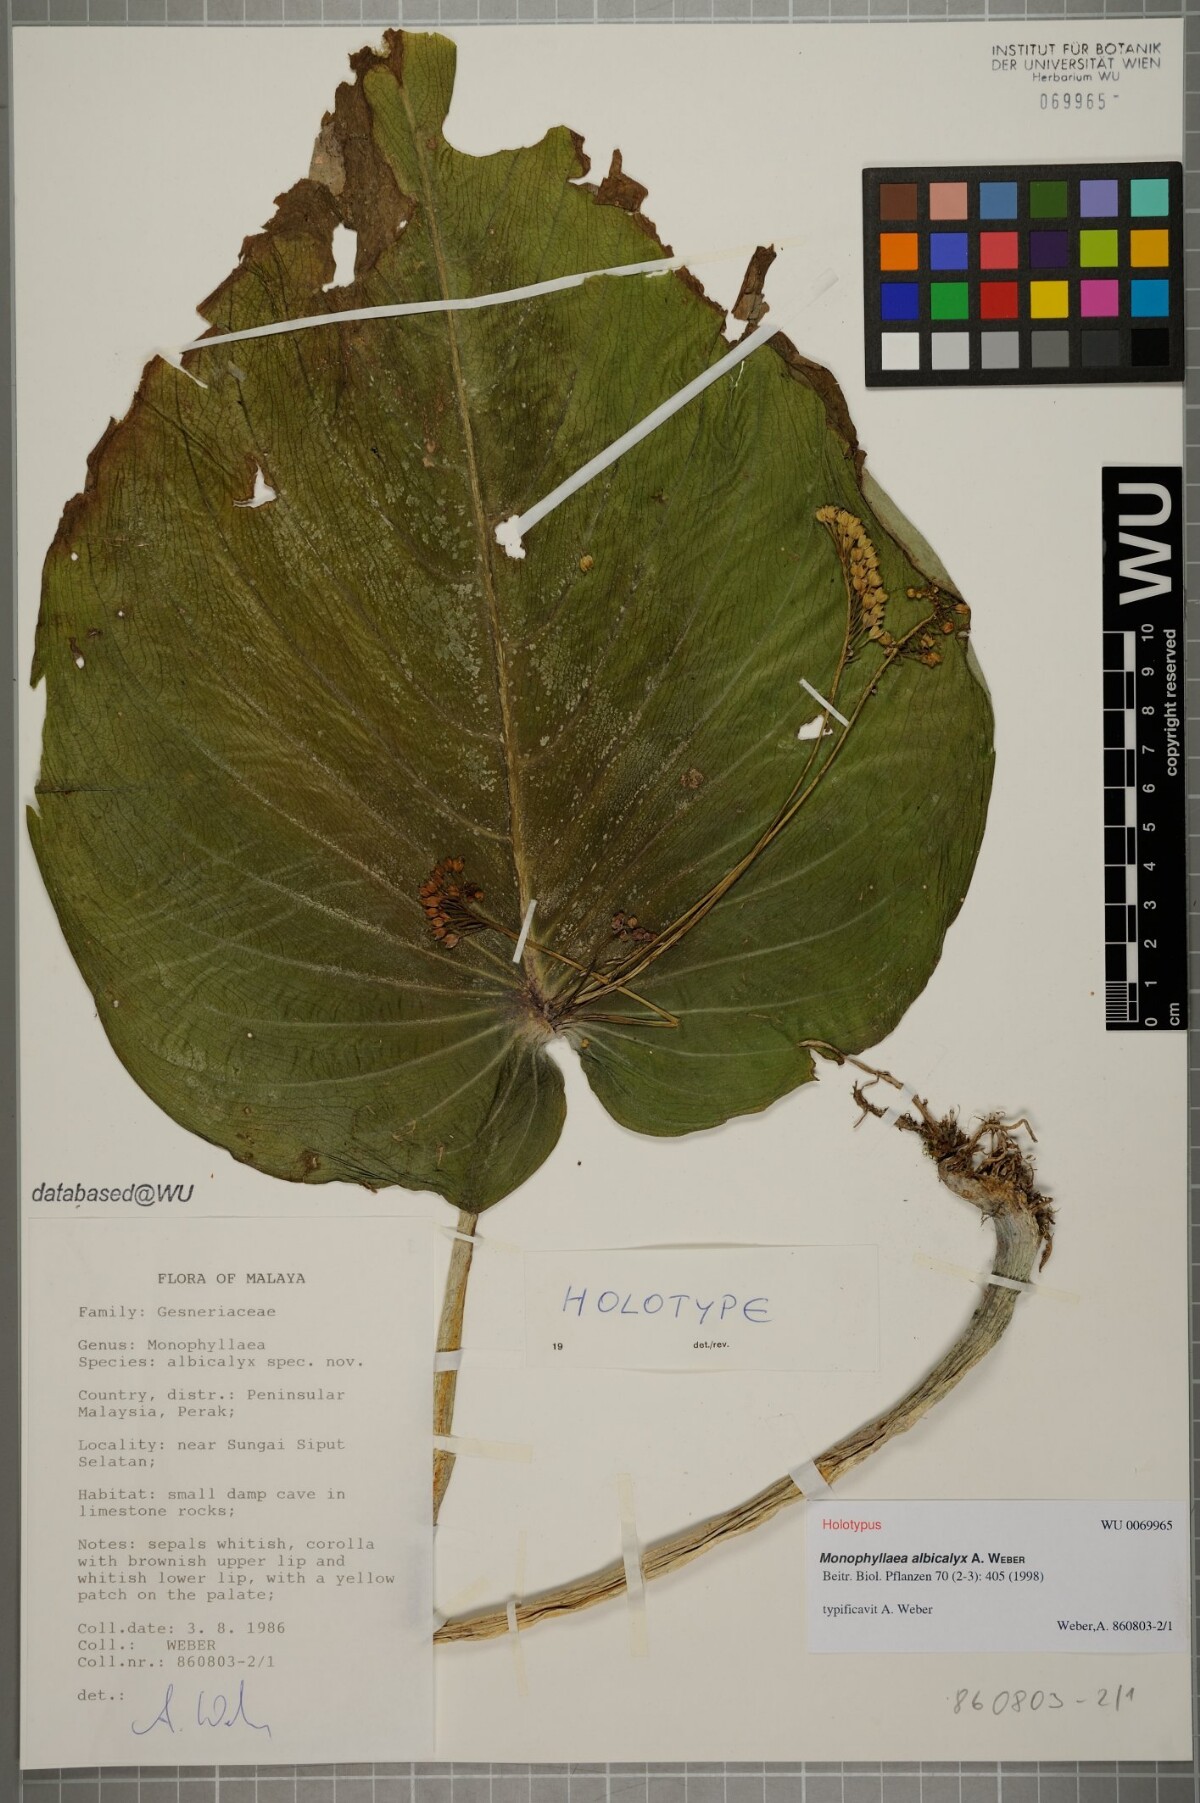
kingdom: Plantae
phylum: Tracheophyta
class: Magnoliopsida
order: Lamiales
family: Gesneriaceae
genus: Monophyllaea
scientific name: Monophyllaea albicalyx
